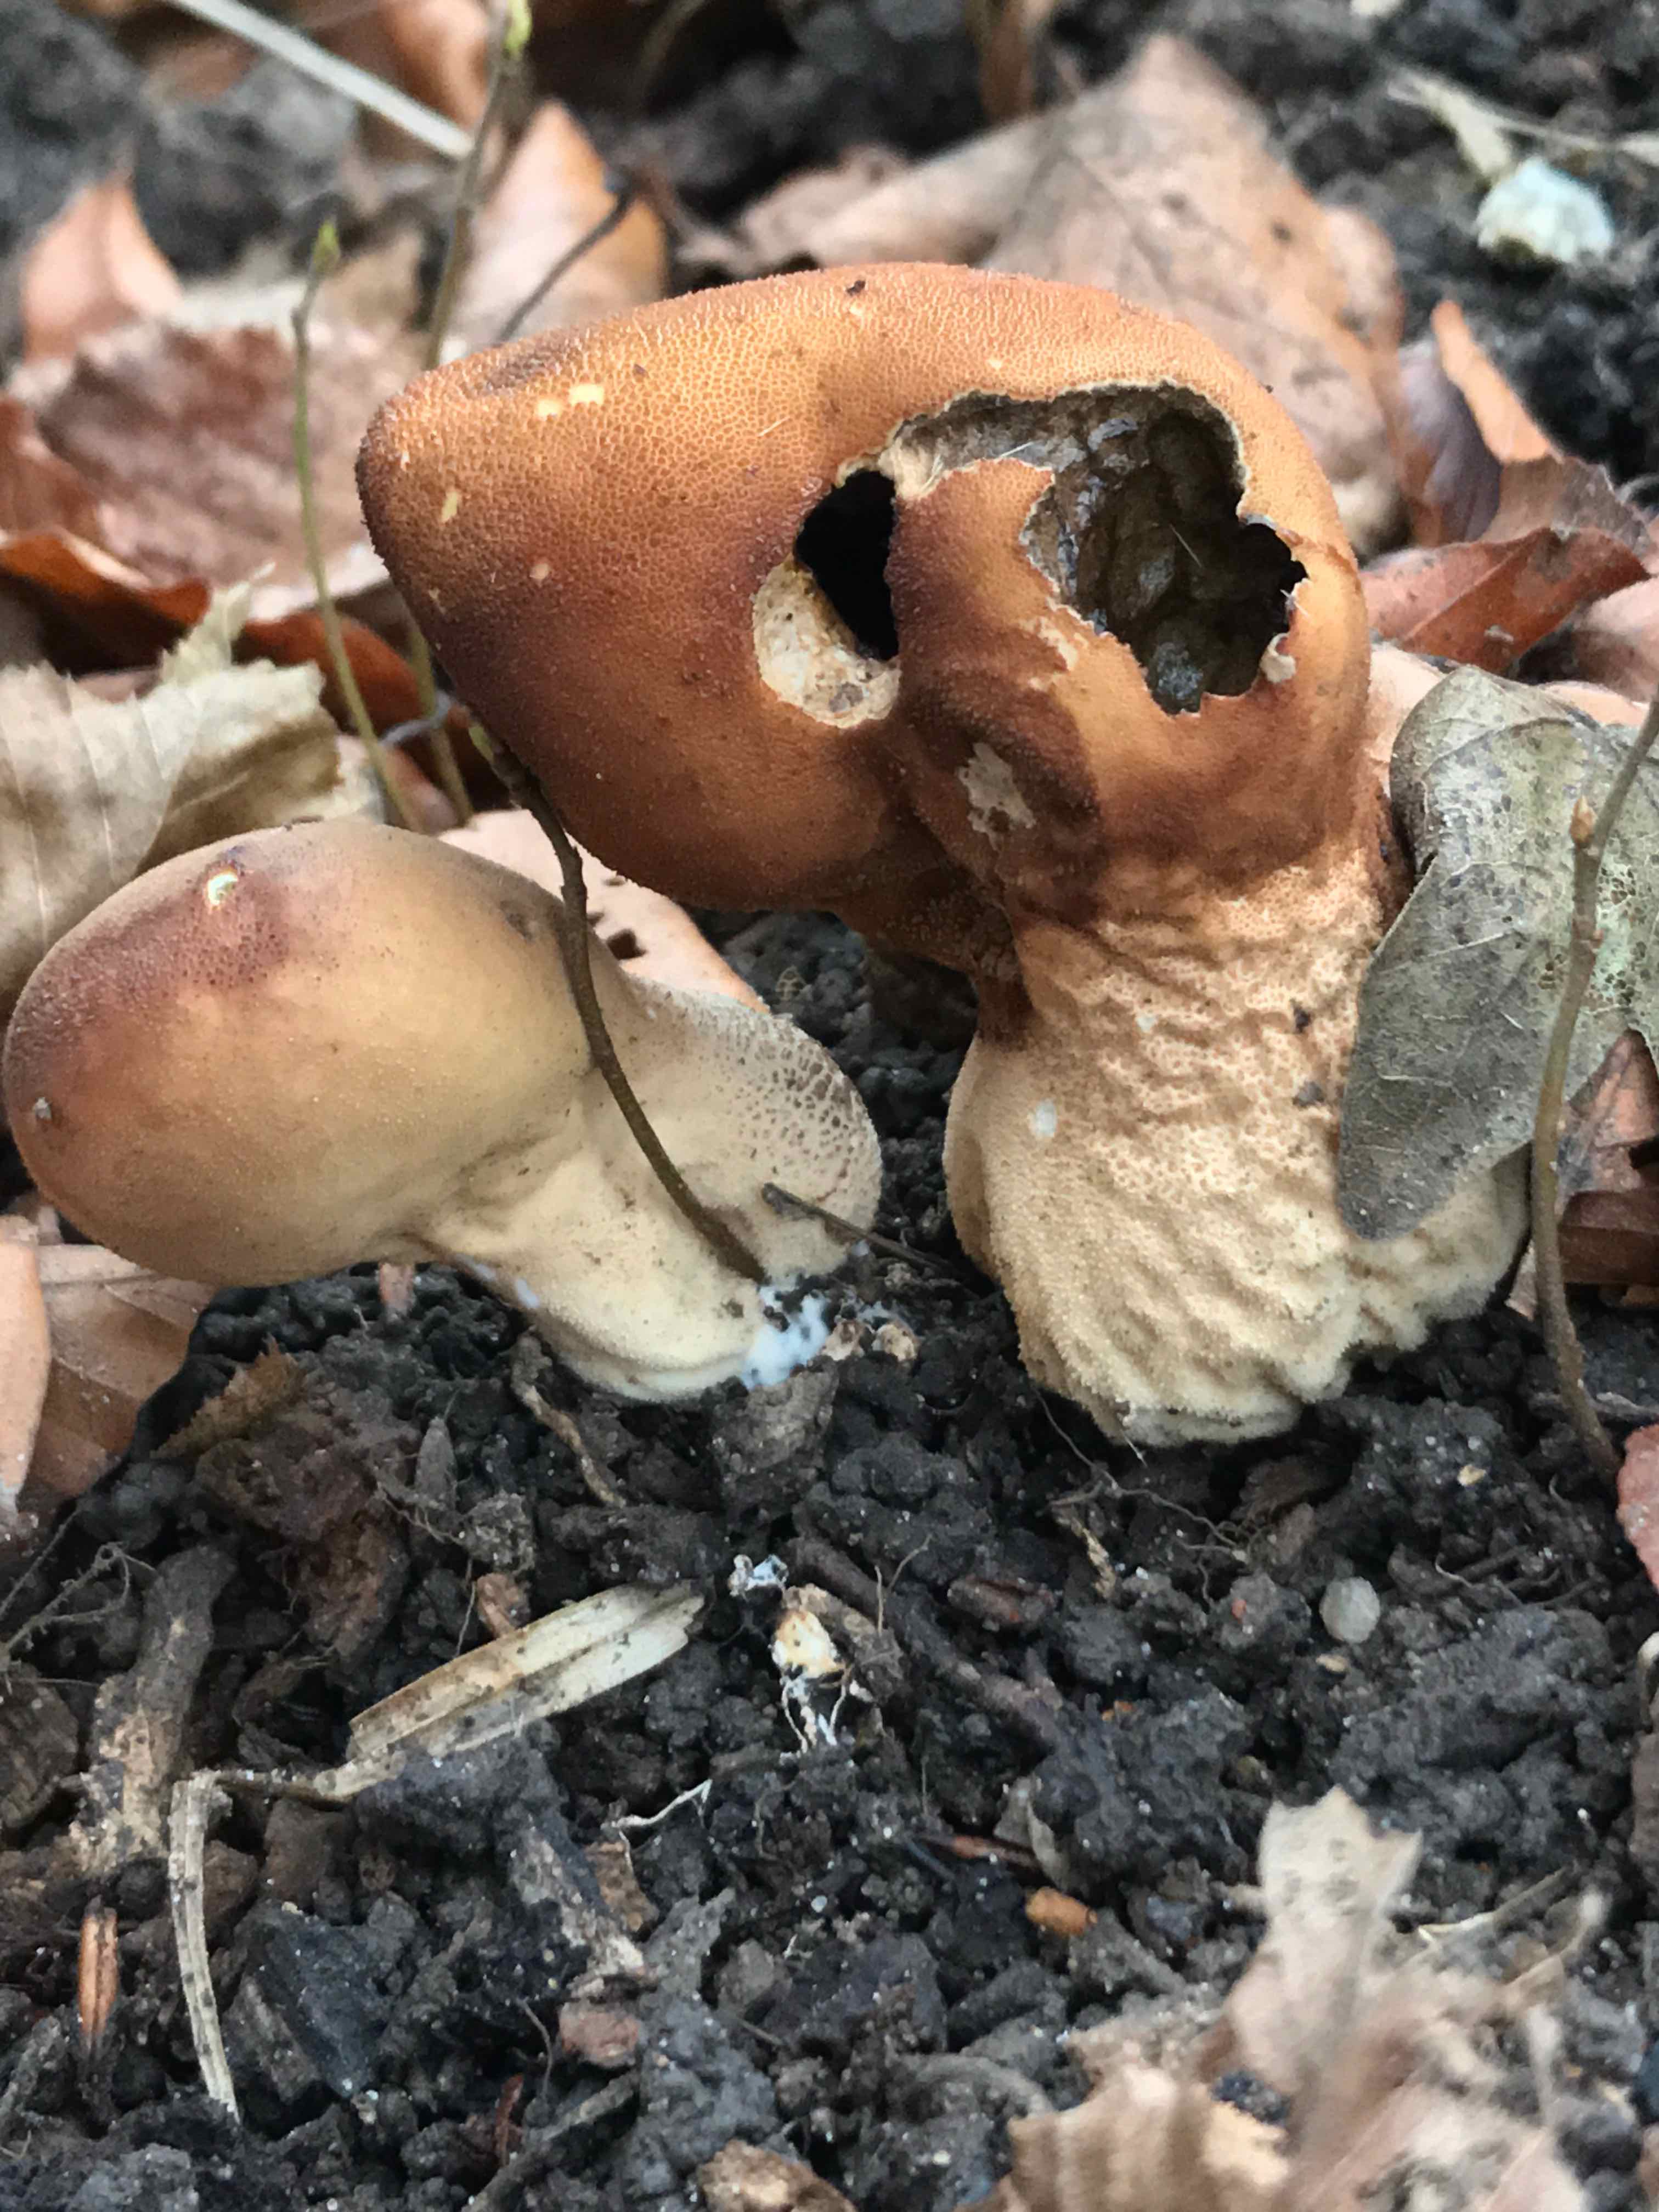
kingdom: Fungi
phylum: Basidiomycota
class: Agaricomycetes
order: Agaricales
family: Lycoperdaceae
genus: Apioperdon
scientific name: Apioperdon pyriforme
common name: pære-støvbold
